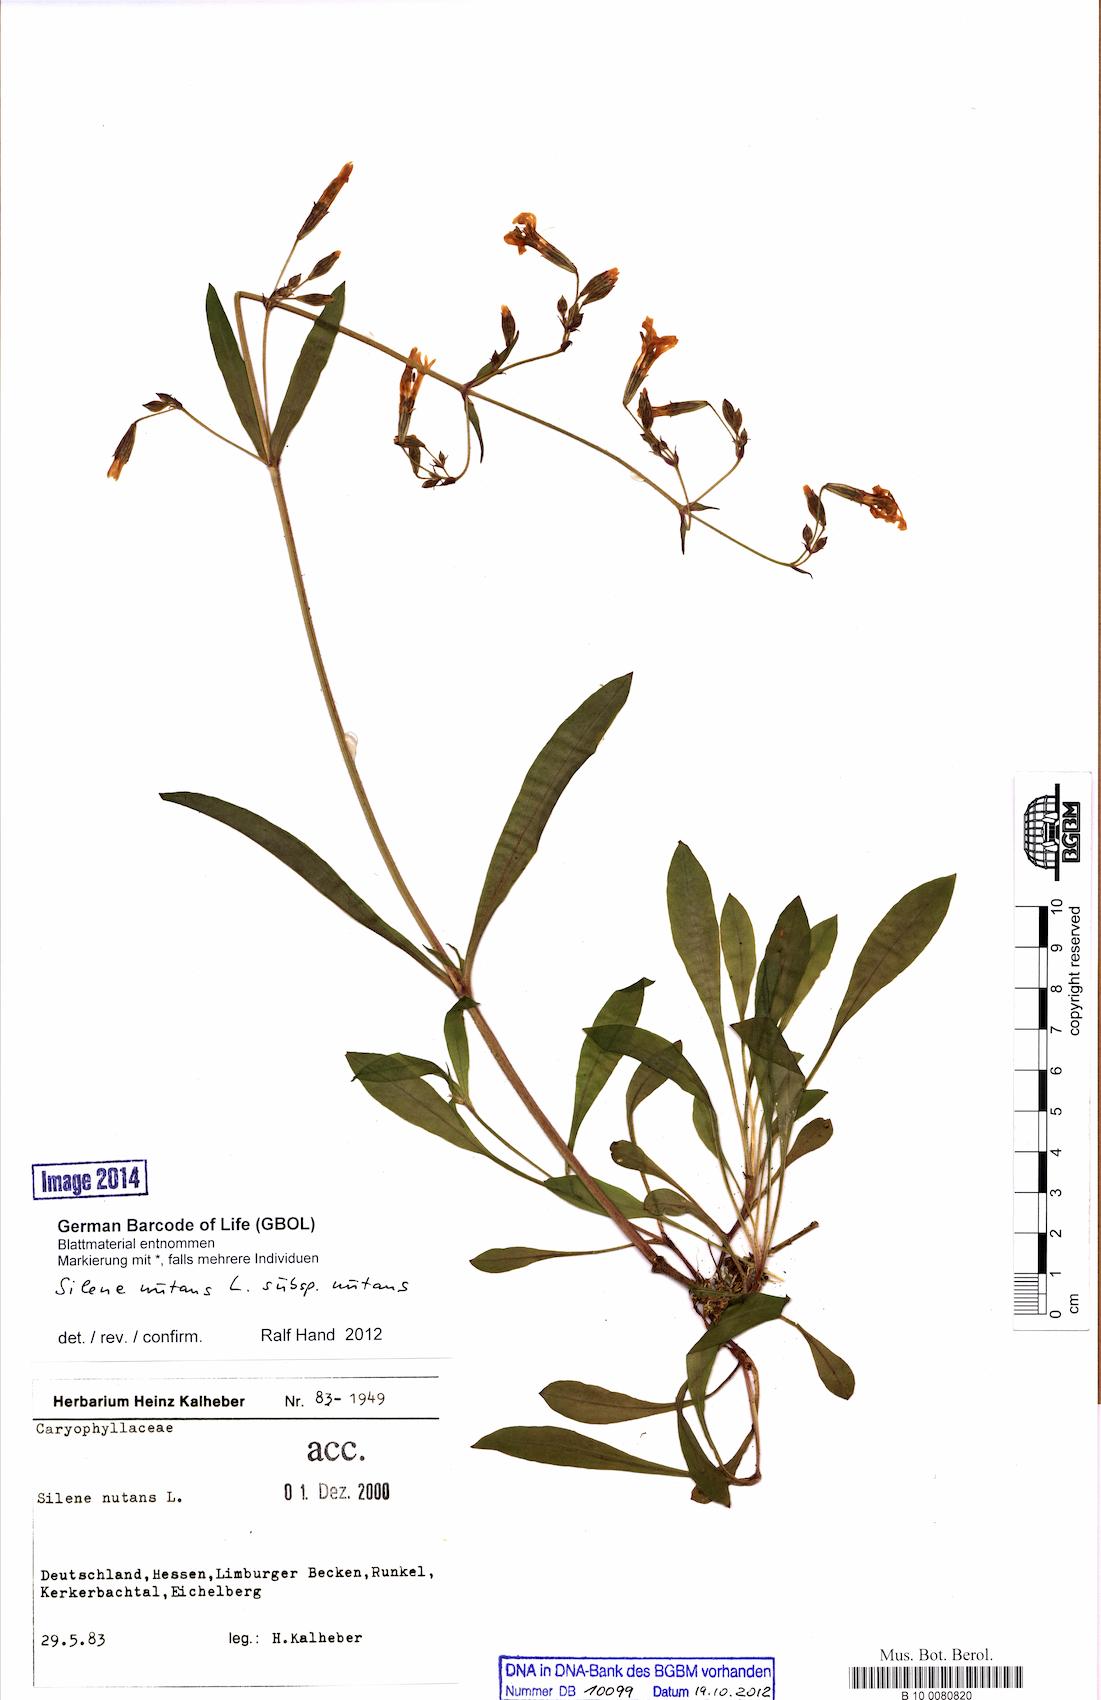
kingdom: Plantae
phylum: Tracheophyta
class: Magnoliopsida
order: Caryophyllales
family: Caryophyllaceae
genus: Silene
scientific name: Silene nutans
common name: Nottingham catchfly
